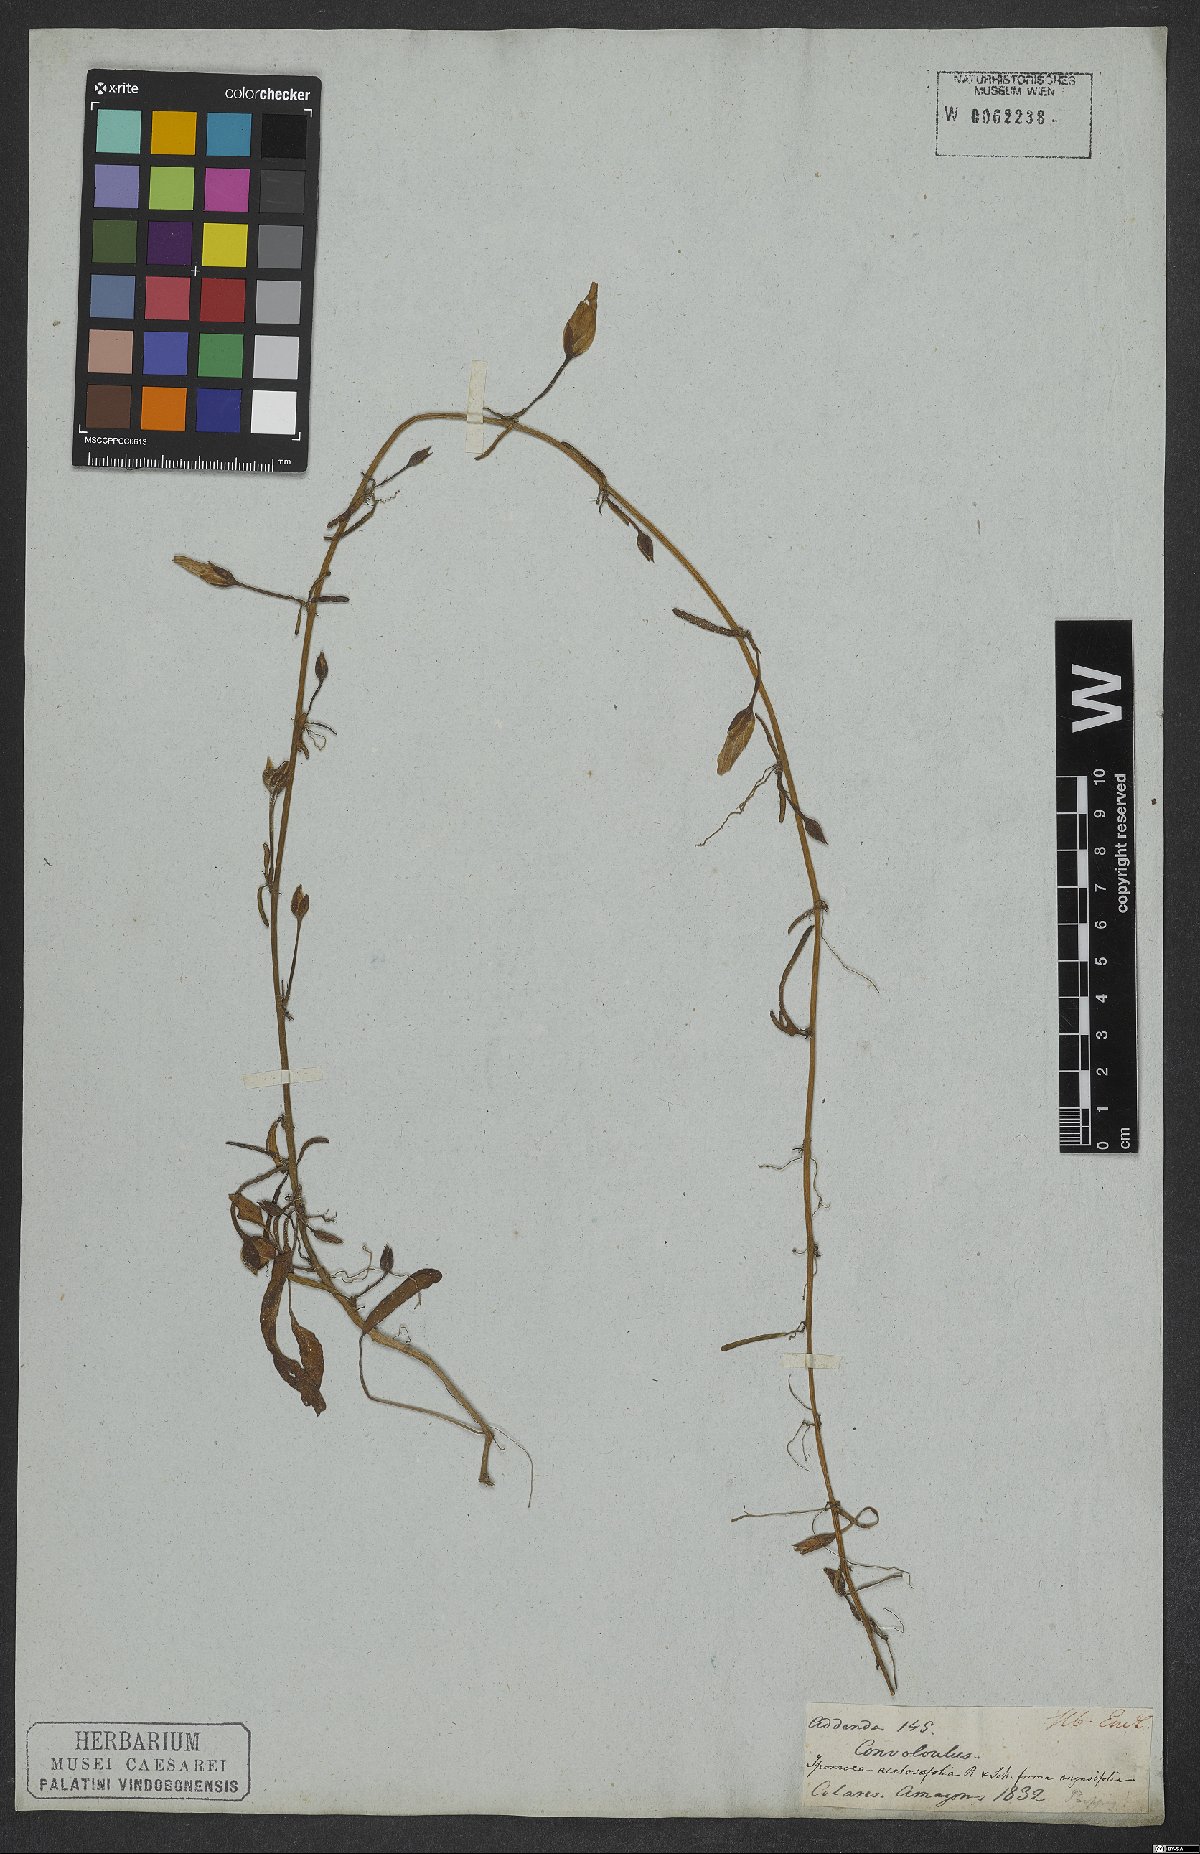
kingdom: Plantae
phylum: Tracheophyta
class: Magnoliopsida
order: Solanales
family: Convolvulaceae
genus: Ipomoea
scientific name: Ipomoea imperati
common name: Fiddle-leaf morning-glory
